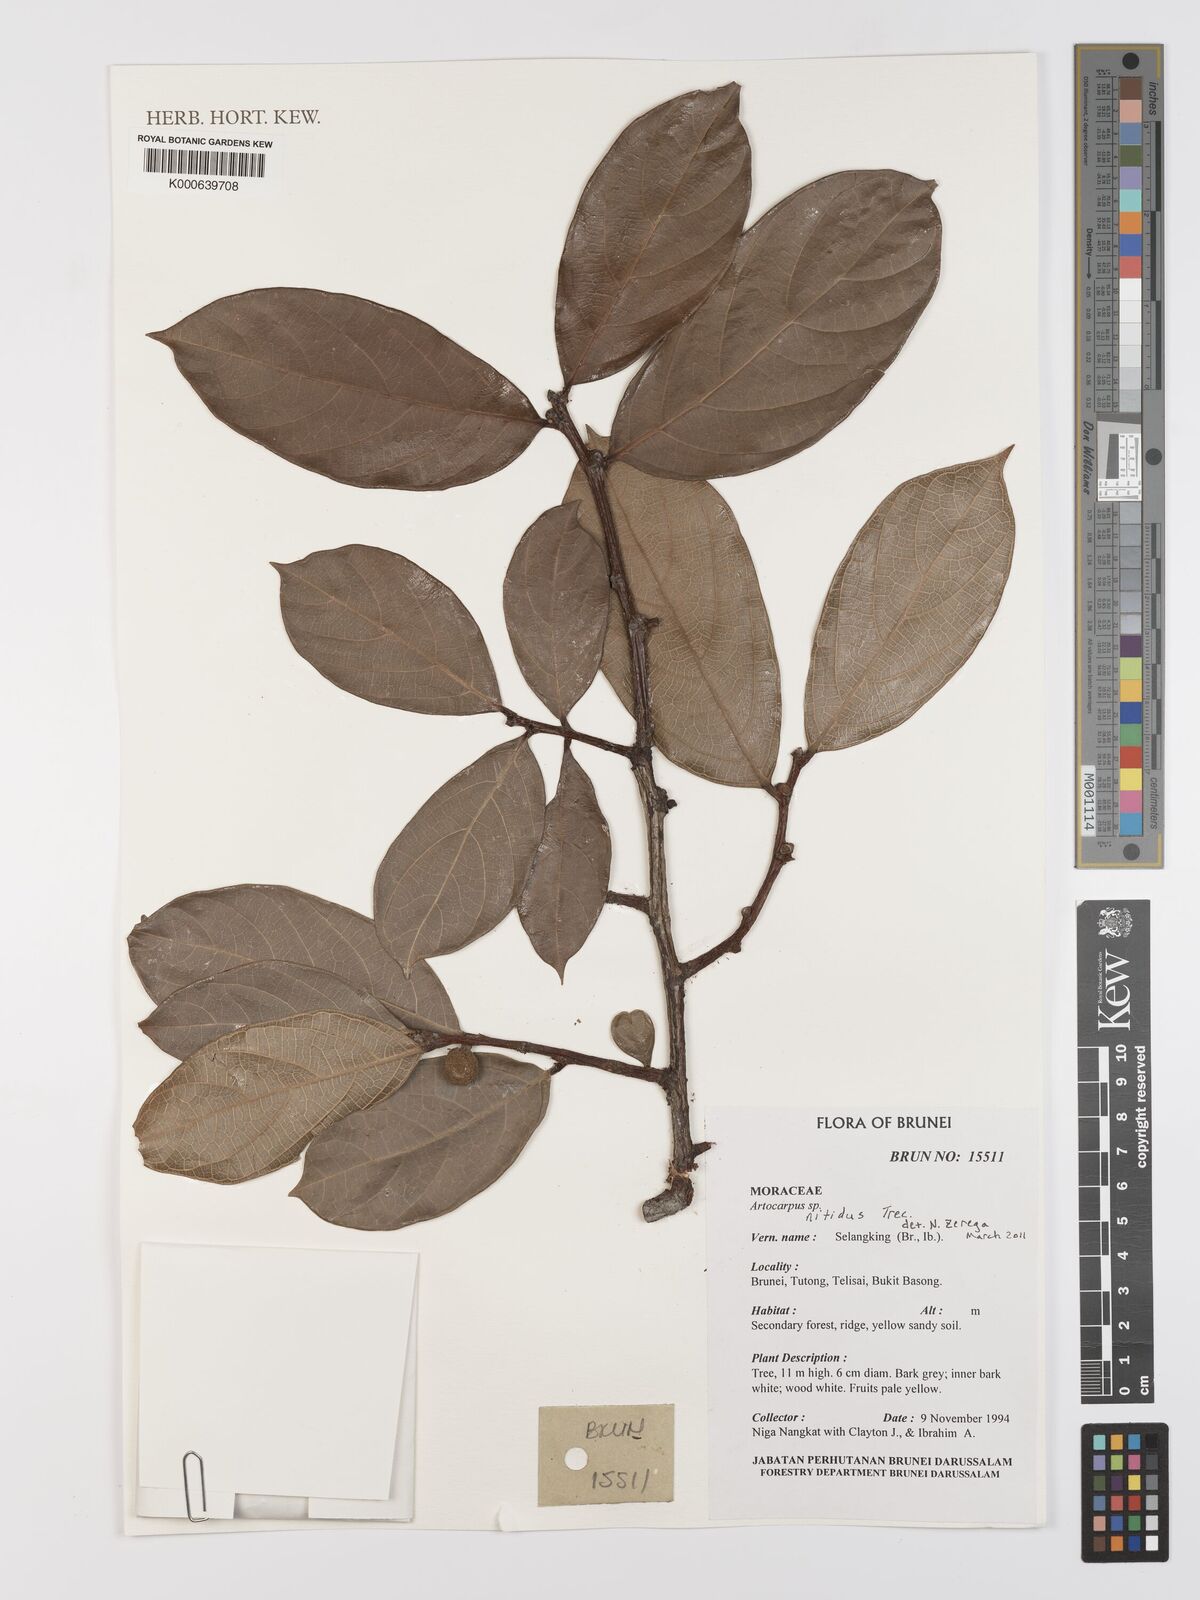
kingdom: Plantae
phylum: Tracheophyta
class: Magnoliopsida
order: Rosales
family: Moraceae
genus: Artocarpus
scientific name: Artocarpus lamellosus
